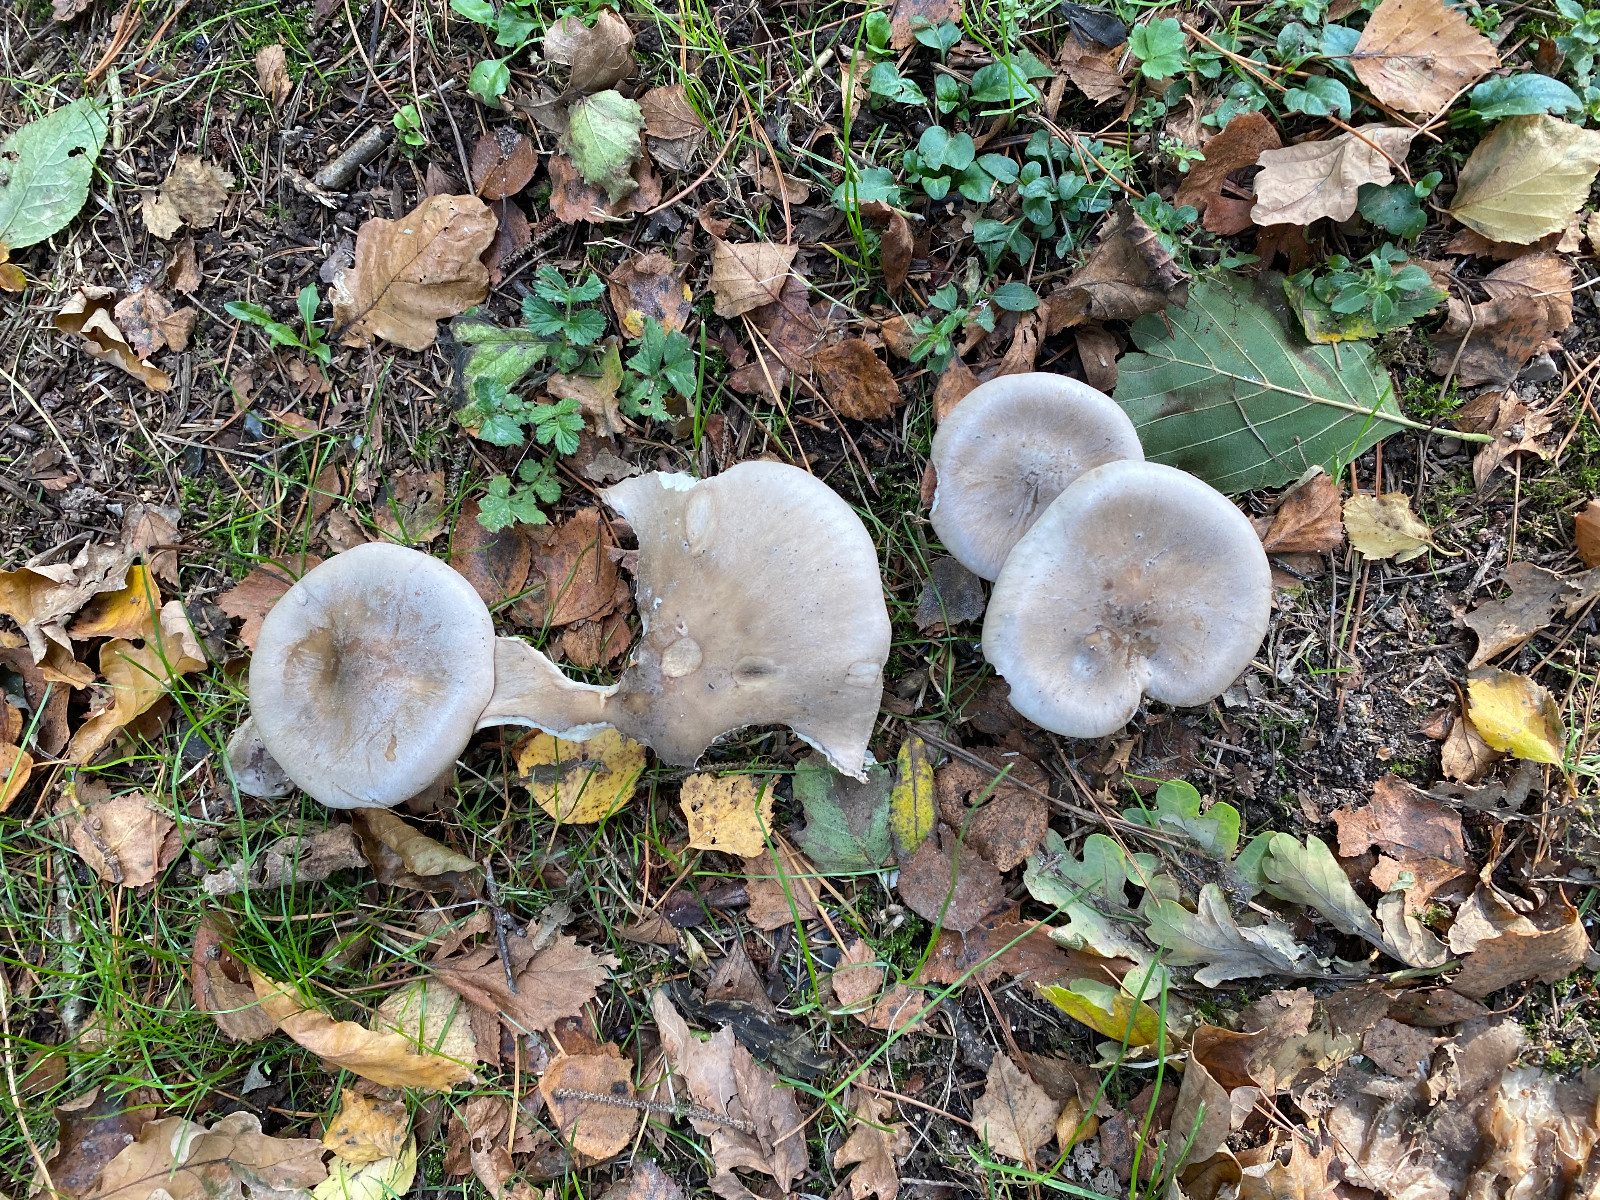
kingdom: Fungi
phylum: Basidiomycota
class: Agaricomycetes
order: Agaricales
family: Tricholomataceae
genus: Clitocybe
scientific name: Clitocybe nebularis
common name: tåge-tragthat
